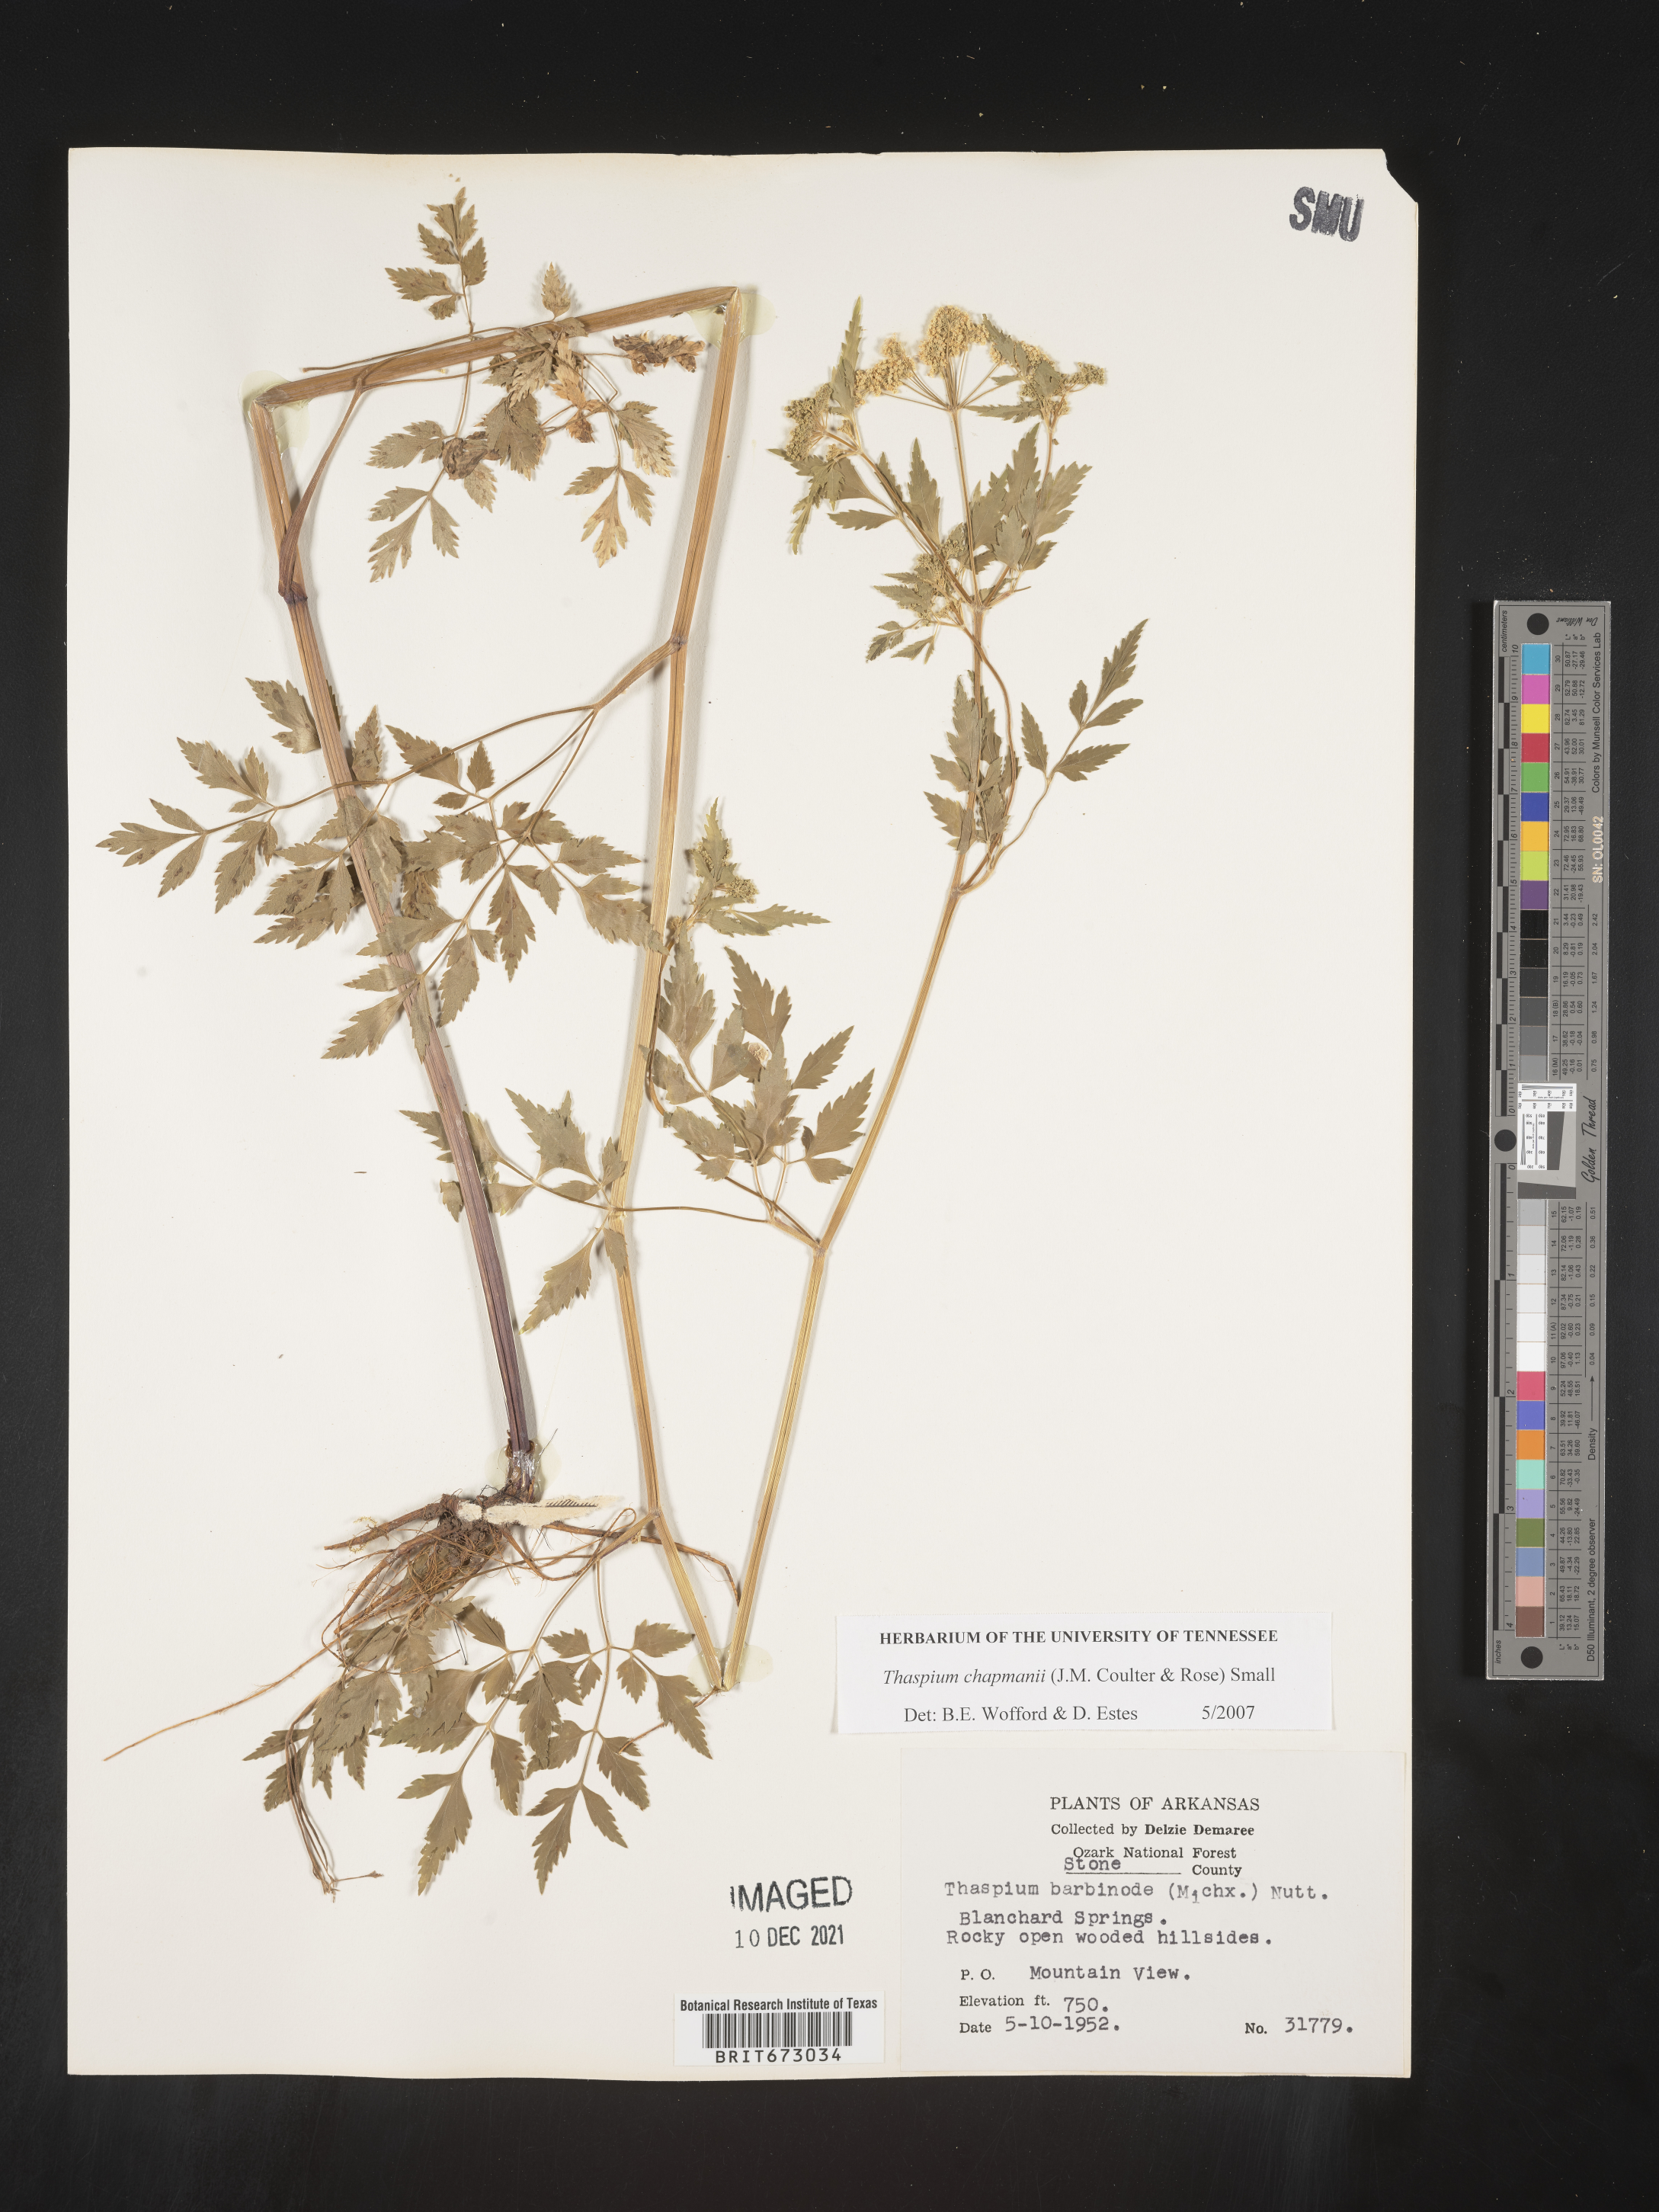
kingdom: Plantae
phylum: Tracheophyta
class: Magnoliopsida
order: Apiales
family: Apiaceae
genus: Thaspium
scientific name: Thaspium barbinode
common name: Bearded meadow-parsnip
